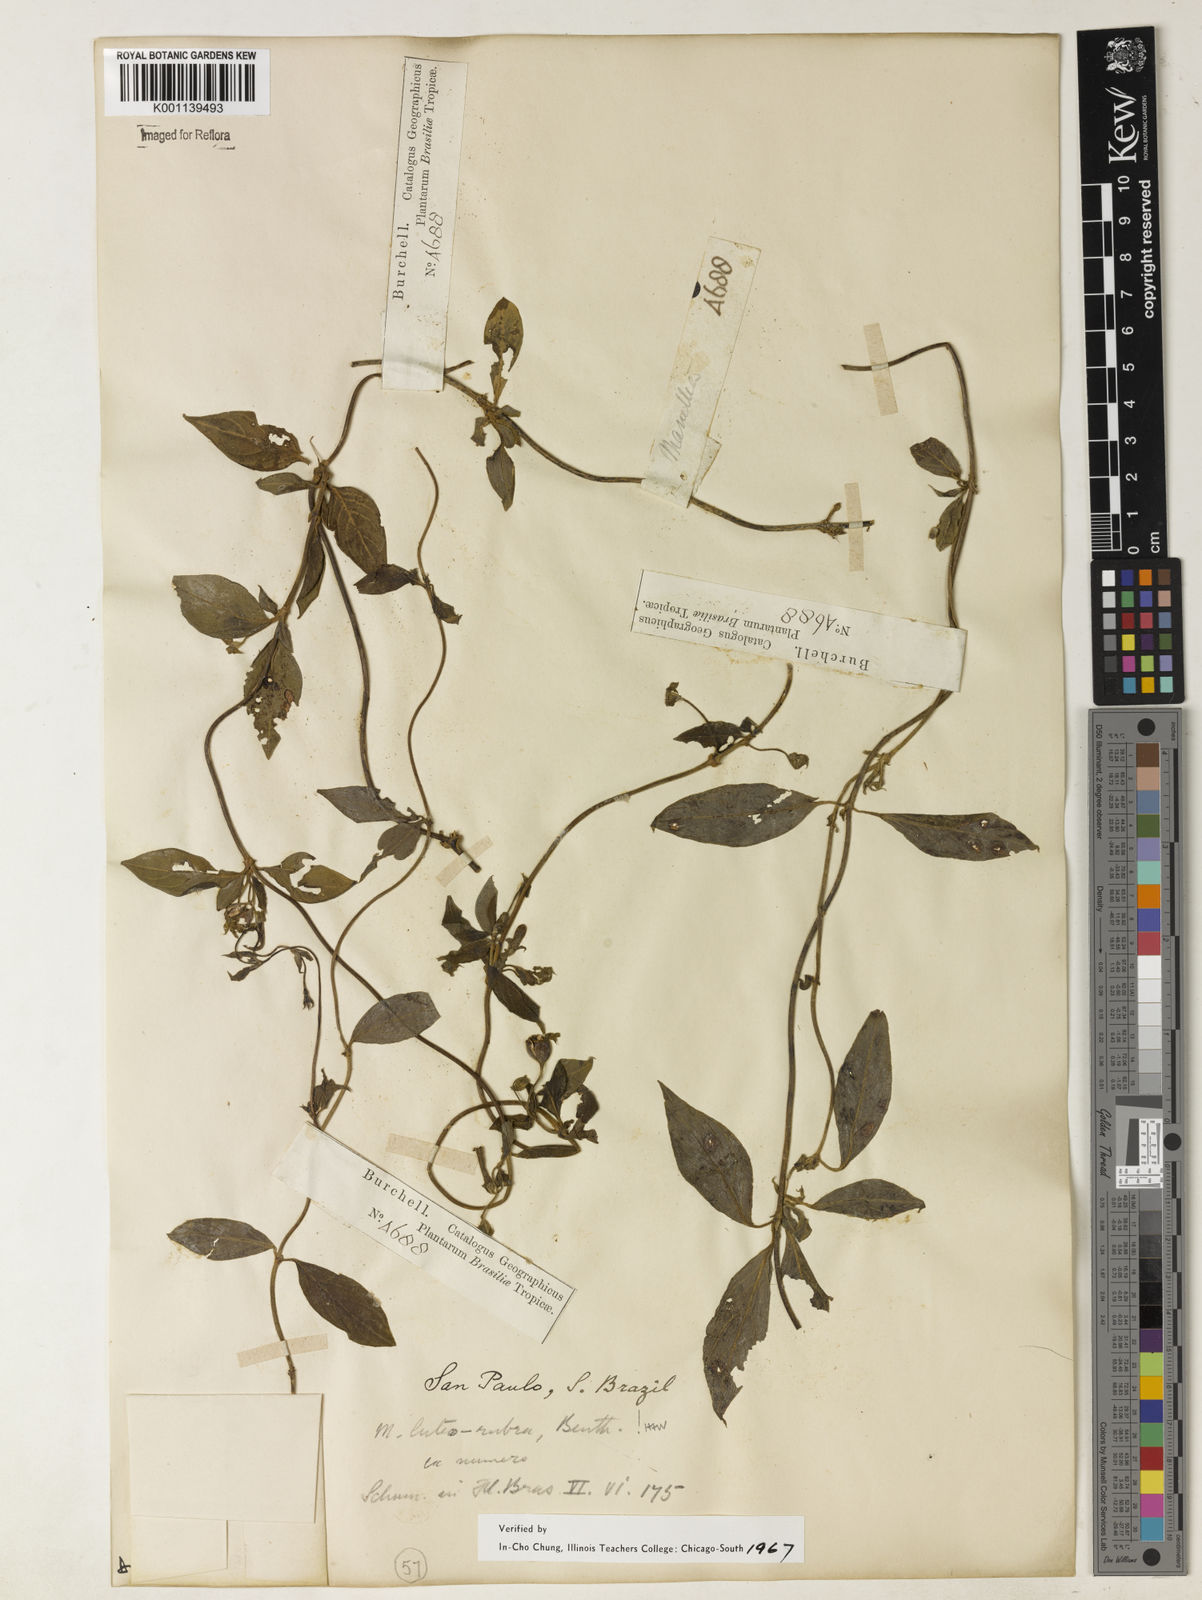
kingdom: Plantae
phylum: Tracheophyta
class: Magnoliopsida
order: Gentianales
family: Rubiaceae
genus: Manettia
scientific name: Manettia luteorubra
